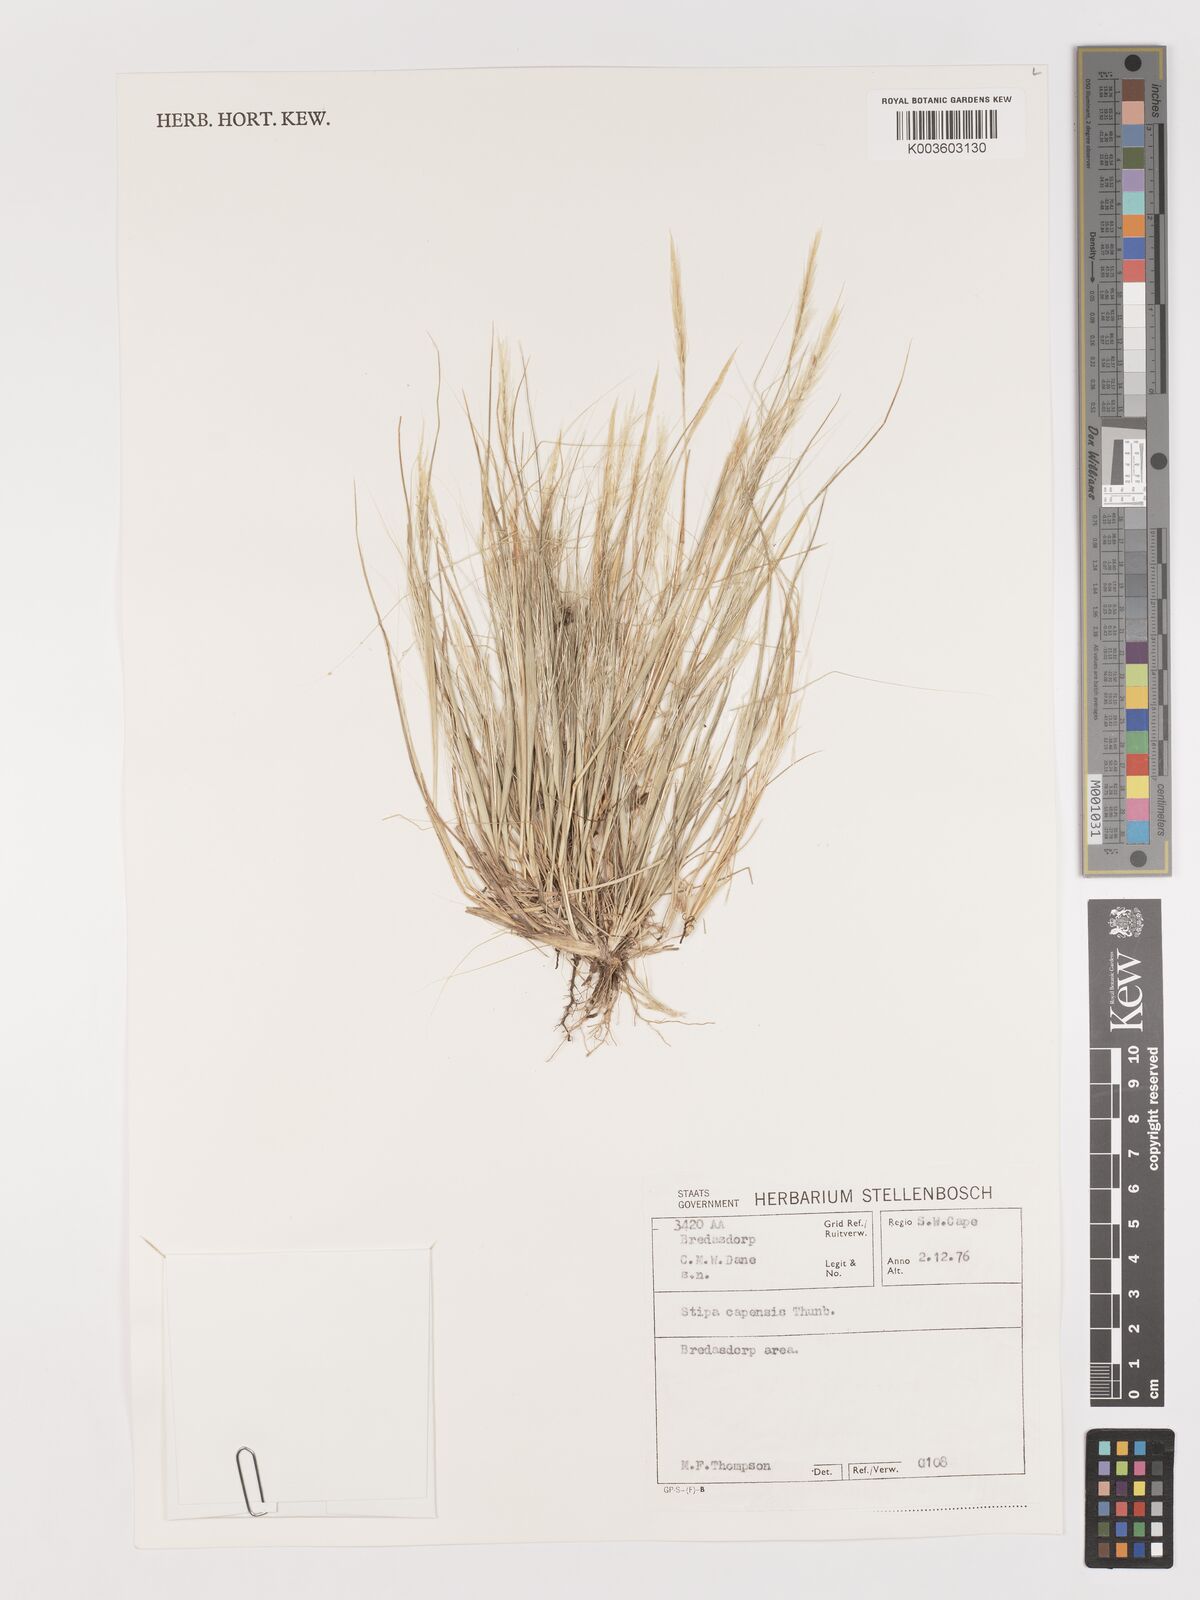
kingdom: Plantae
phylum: Tracheophyta
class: Liliopsida
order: Poales
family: Poaceae
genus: Stipellula
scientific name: Stipellula capensis
